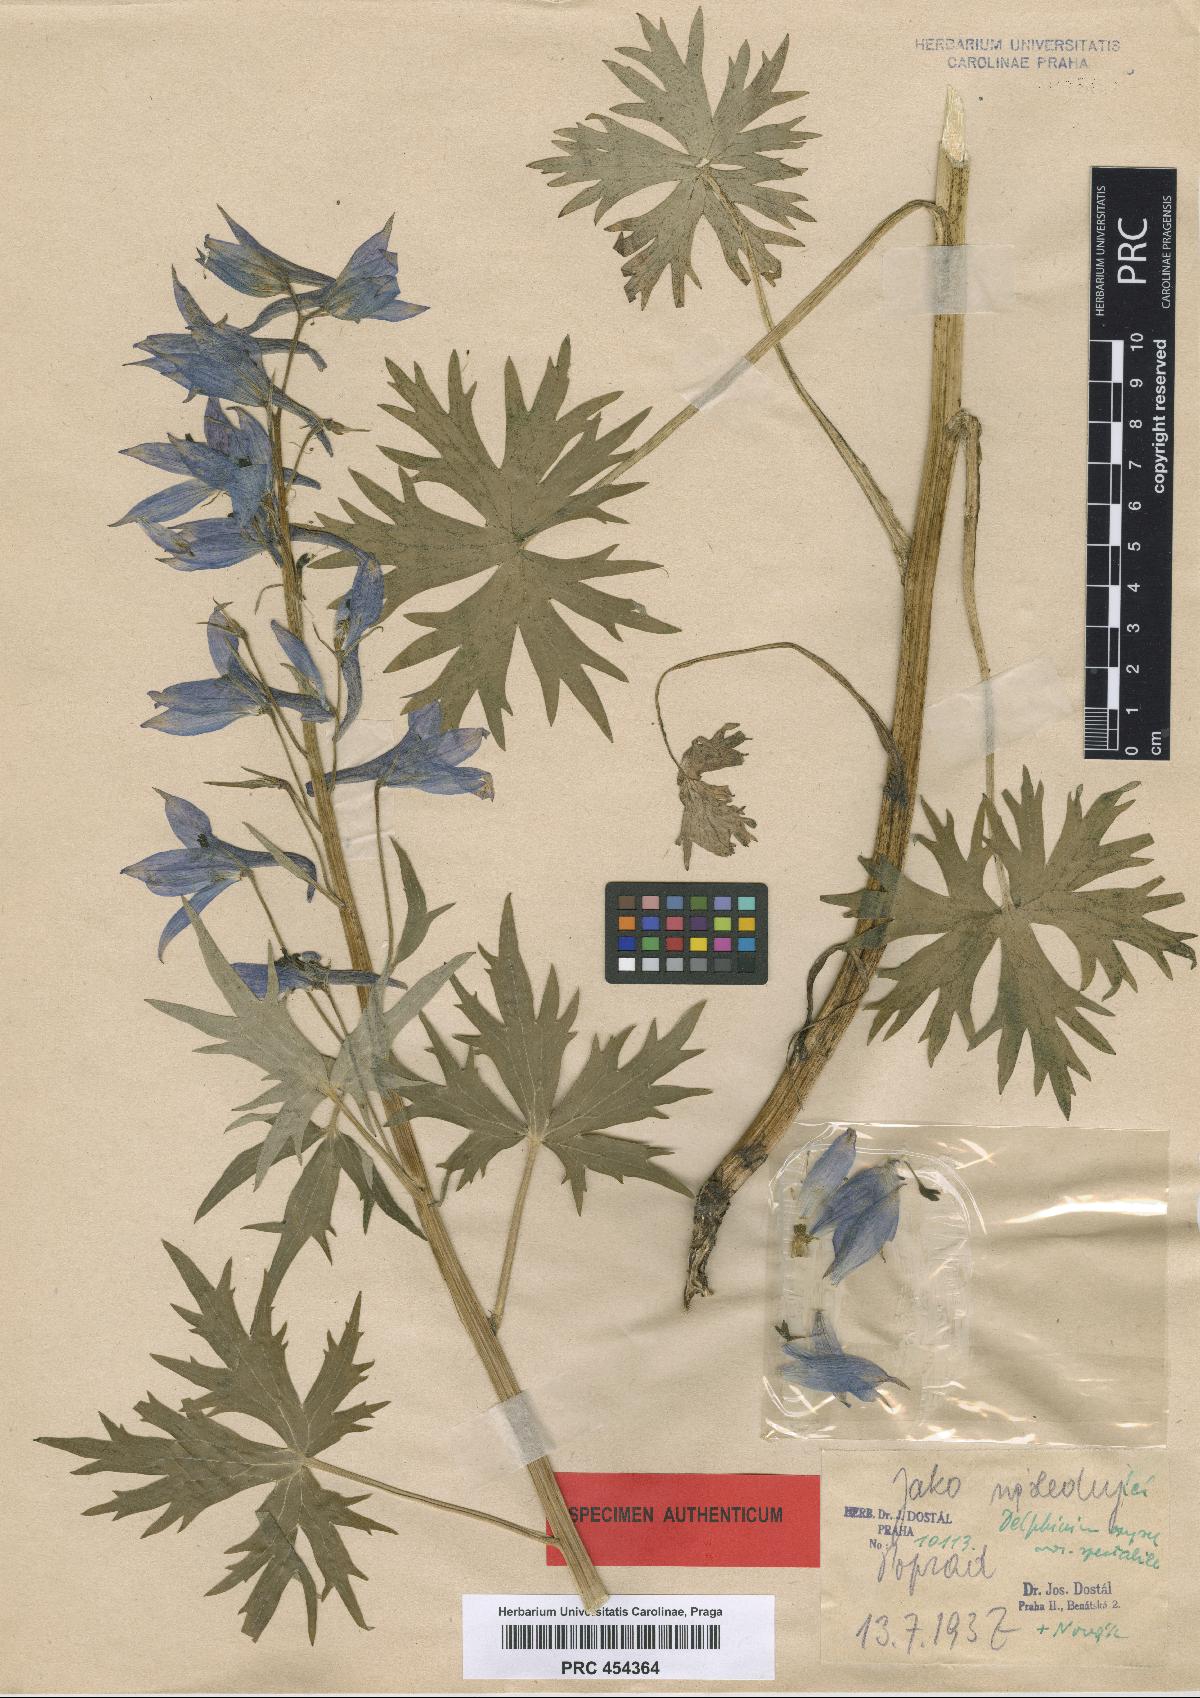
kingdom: Plantae
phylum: Tracheophyta
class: Magnoliopsida
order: Ranunculales
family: Ranunculaceae
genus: Delphinium
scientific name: Delphinium oxysepalum
